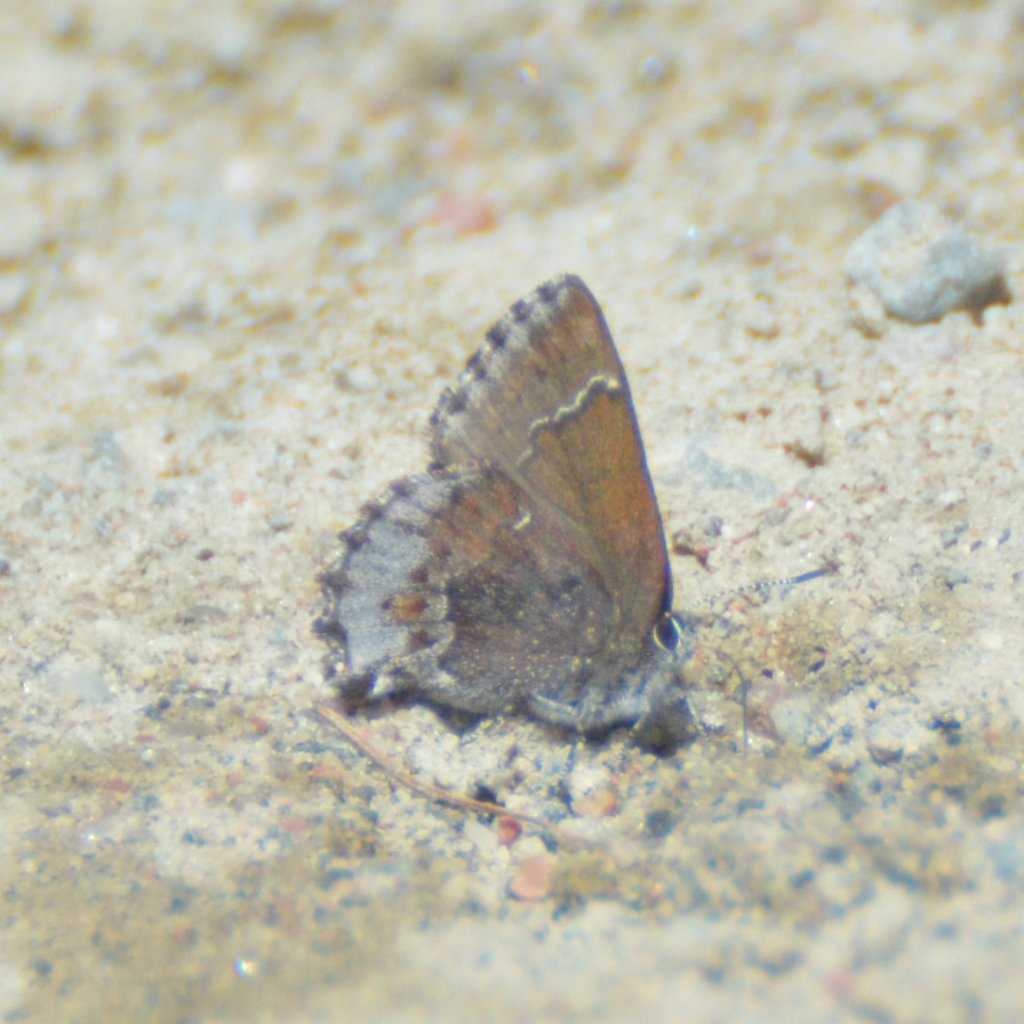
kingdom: Animalia
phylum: Arthropoda
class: Insecta
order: Lepidoptera
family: Lycaenidae
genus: Callophrys
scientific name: Callophrys polios
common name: Hoary Elfin
